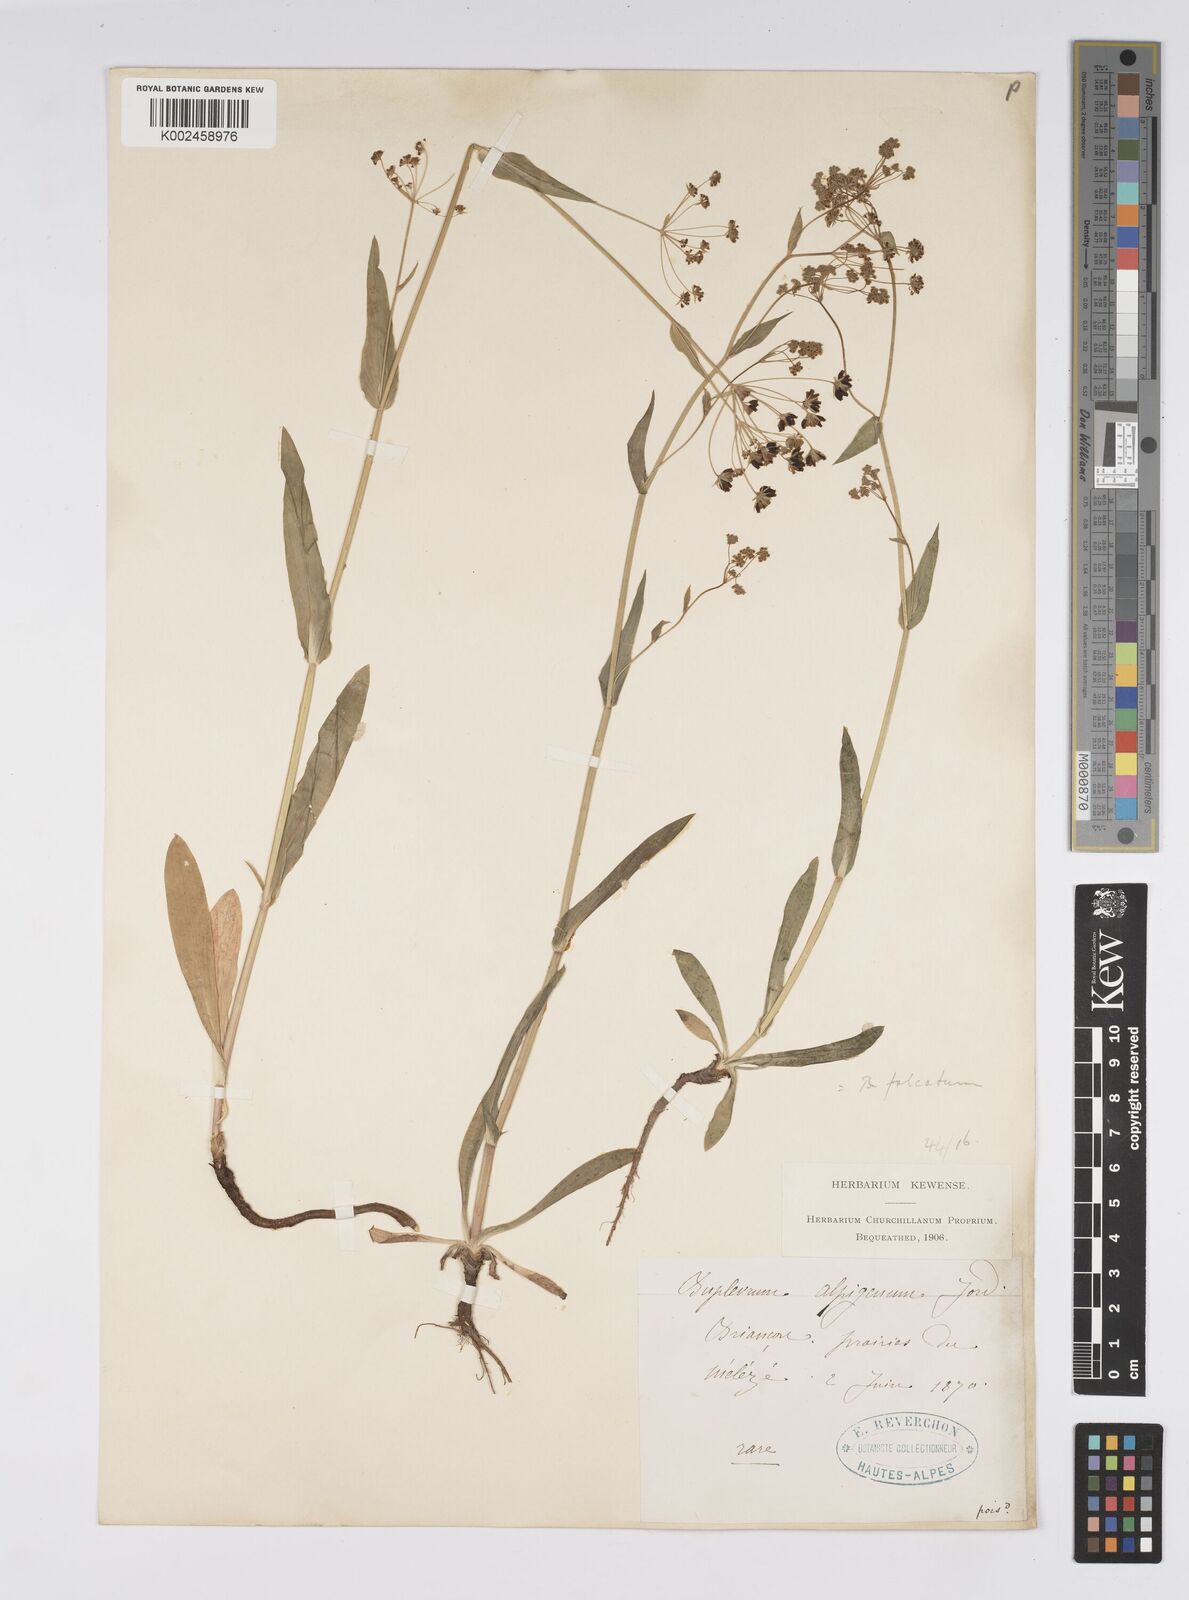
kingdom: Plantae
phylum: Tracheophyta
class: Magnoliopsida
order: Apiales
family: Apiaceae
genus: Bupleurum
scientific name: Bupleurum falcatum
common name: Sickle-leaved hare's-ear
